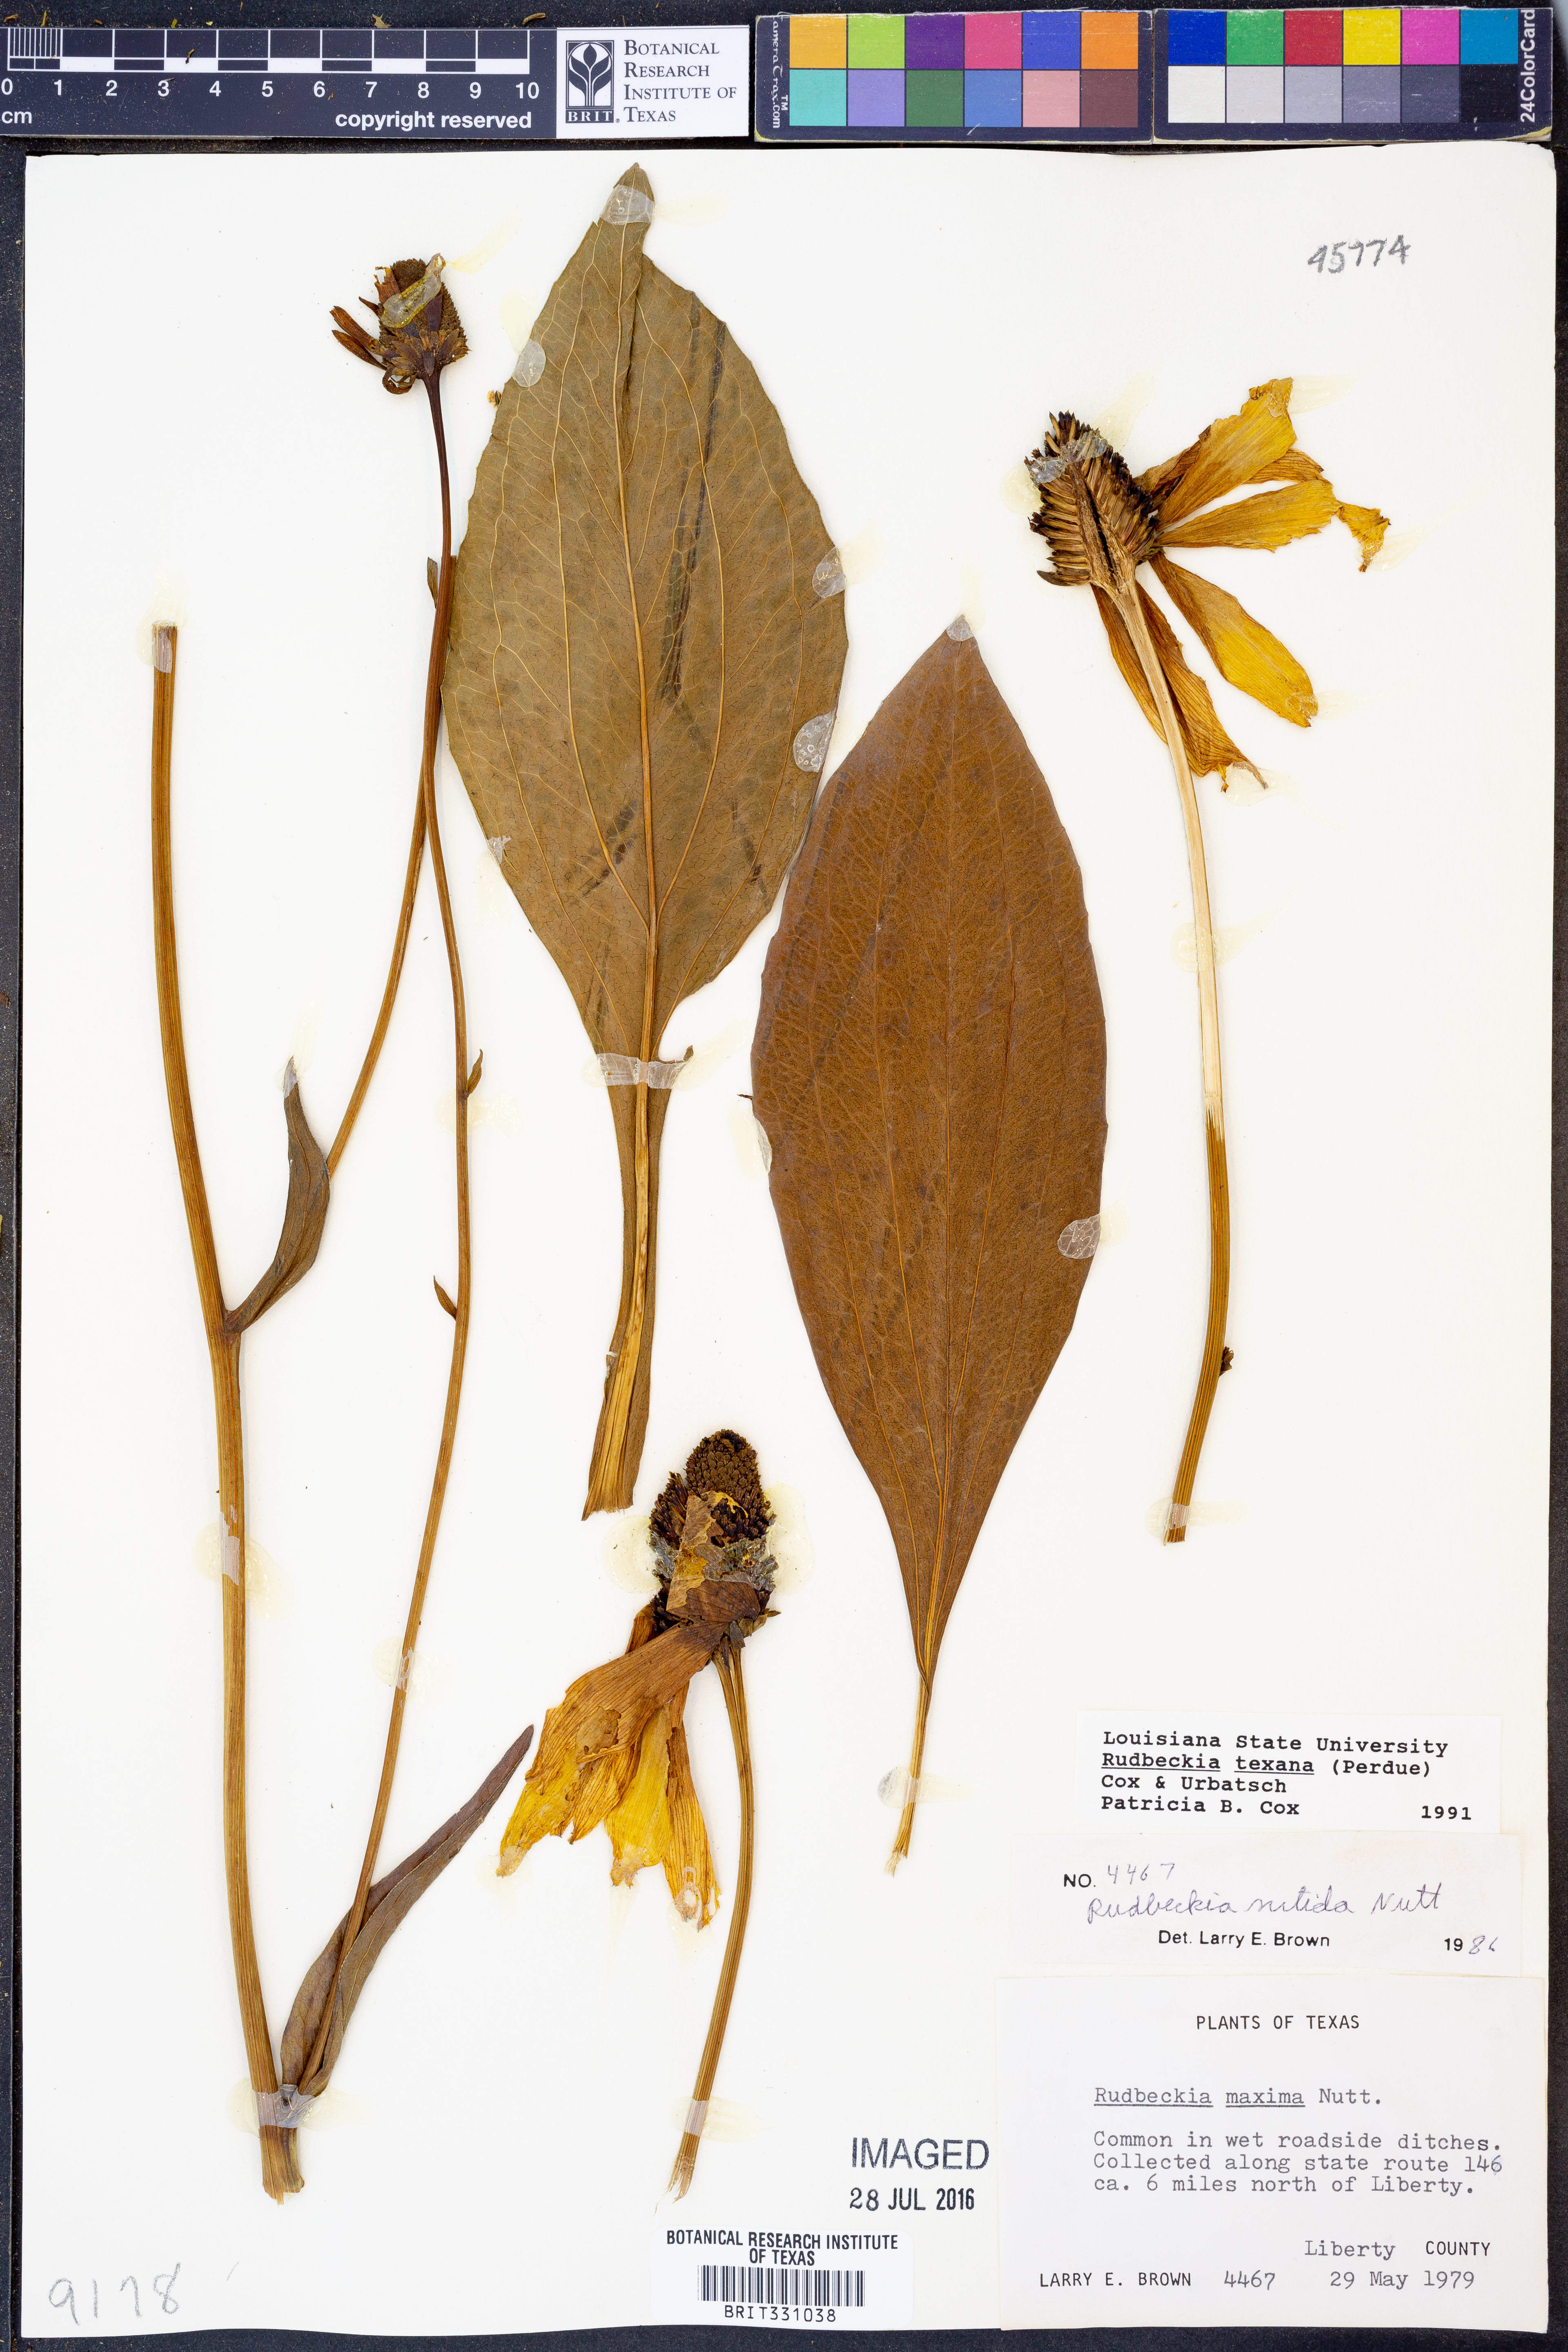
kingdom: Plantae
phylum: Tracheophyta
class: Magnoliopsida
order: Asterales
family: Asteraceae
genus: Rudbeckia
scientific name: Rudbeckia texana
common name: Texas coneflower
